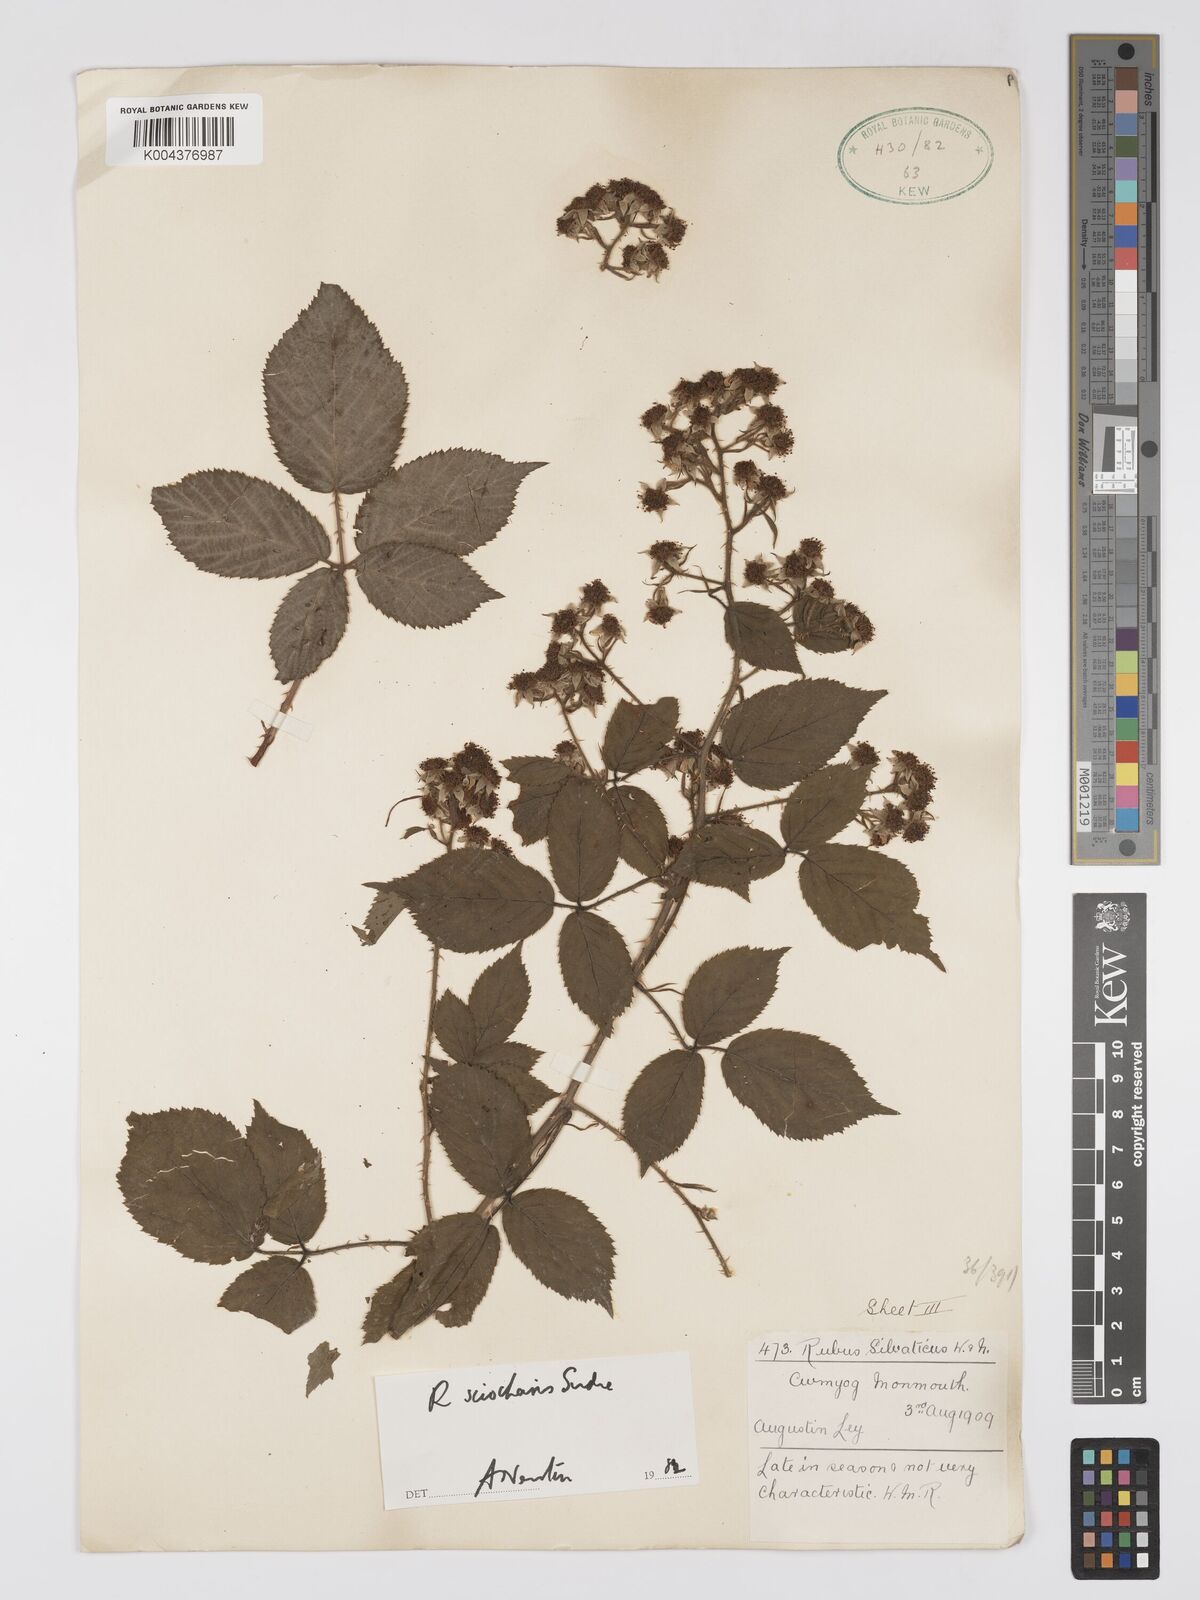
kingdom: Plantae
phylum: Tracheophyta
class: Magnoliopsida
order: Rosales
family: Rosaceae
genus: Rubus
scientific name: Rubus sciocharis
